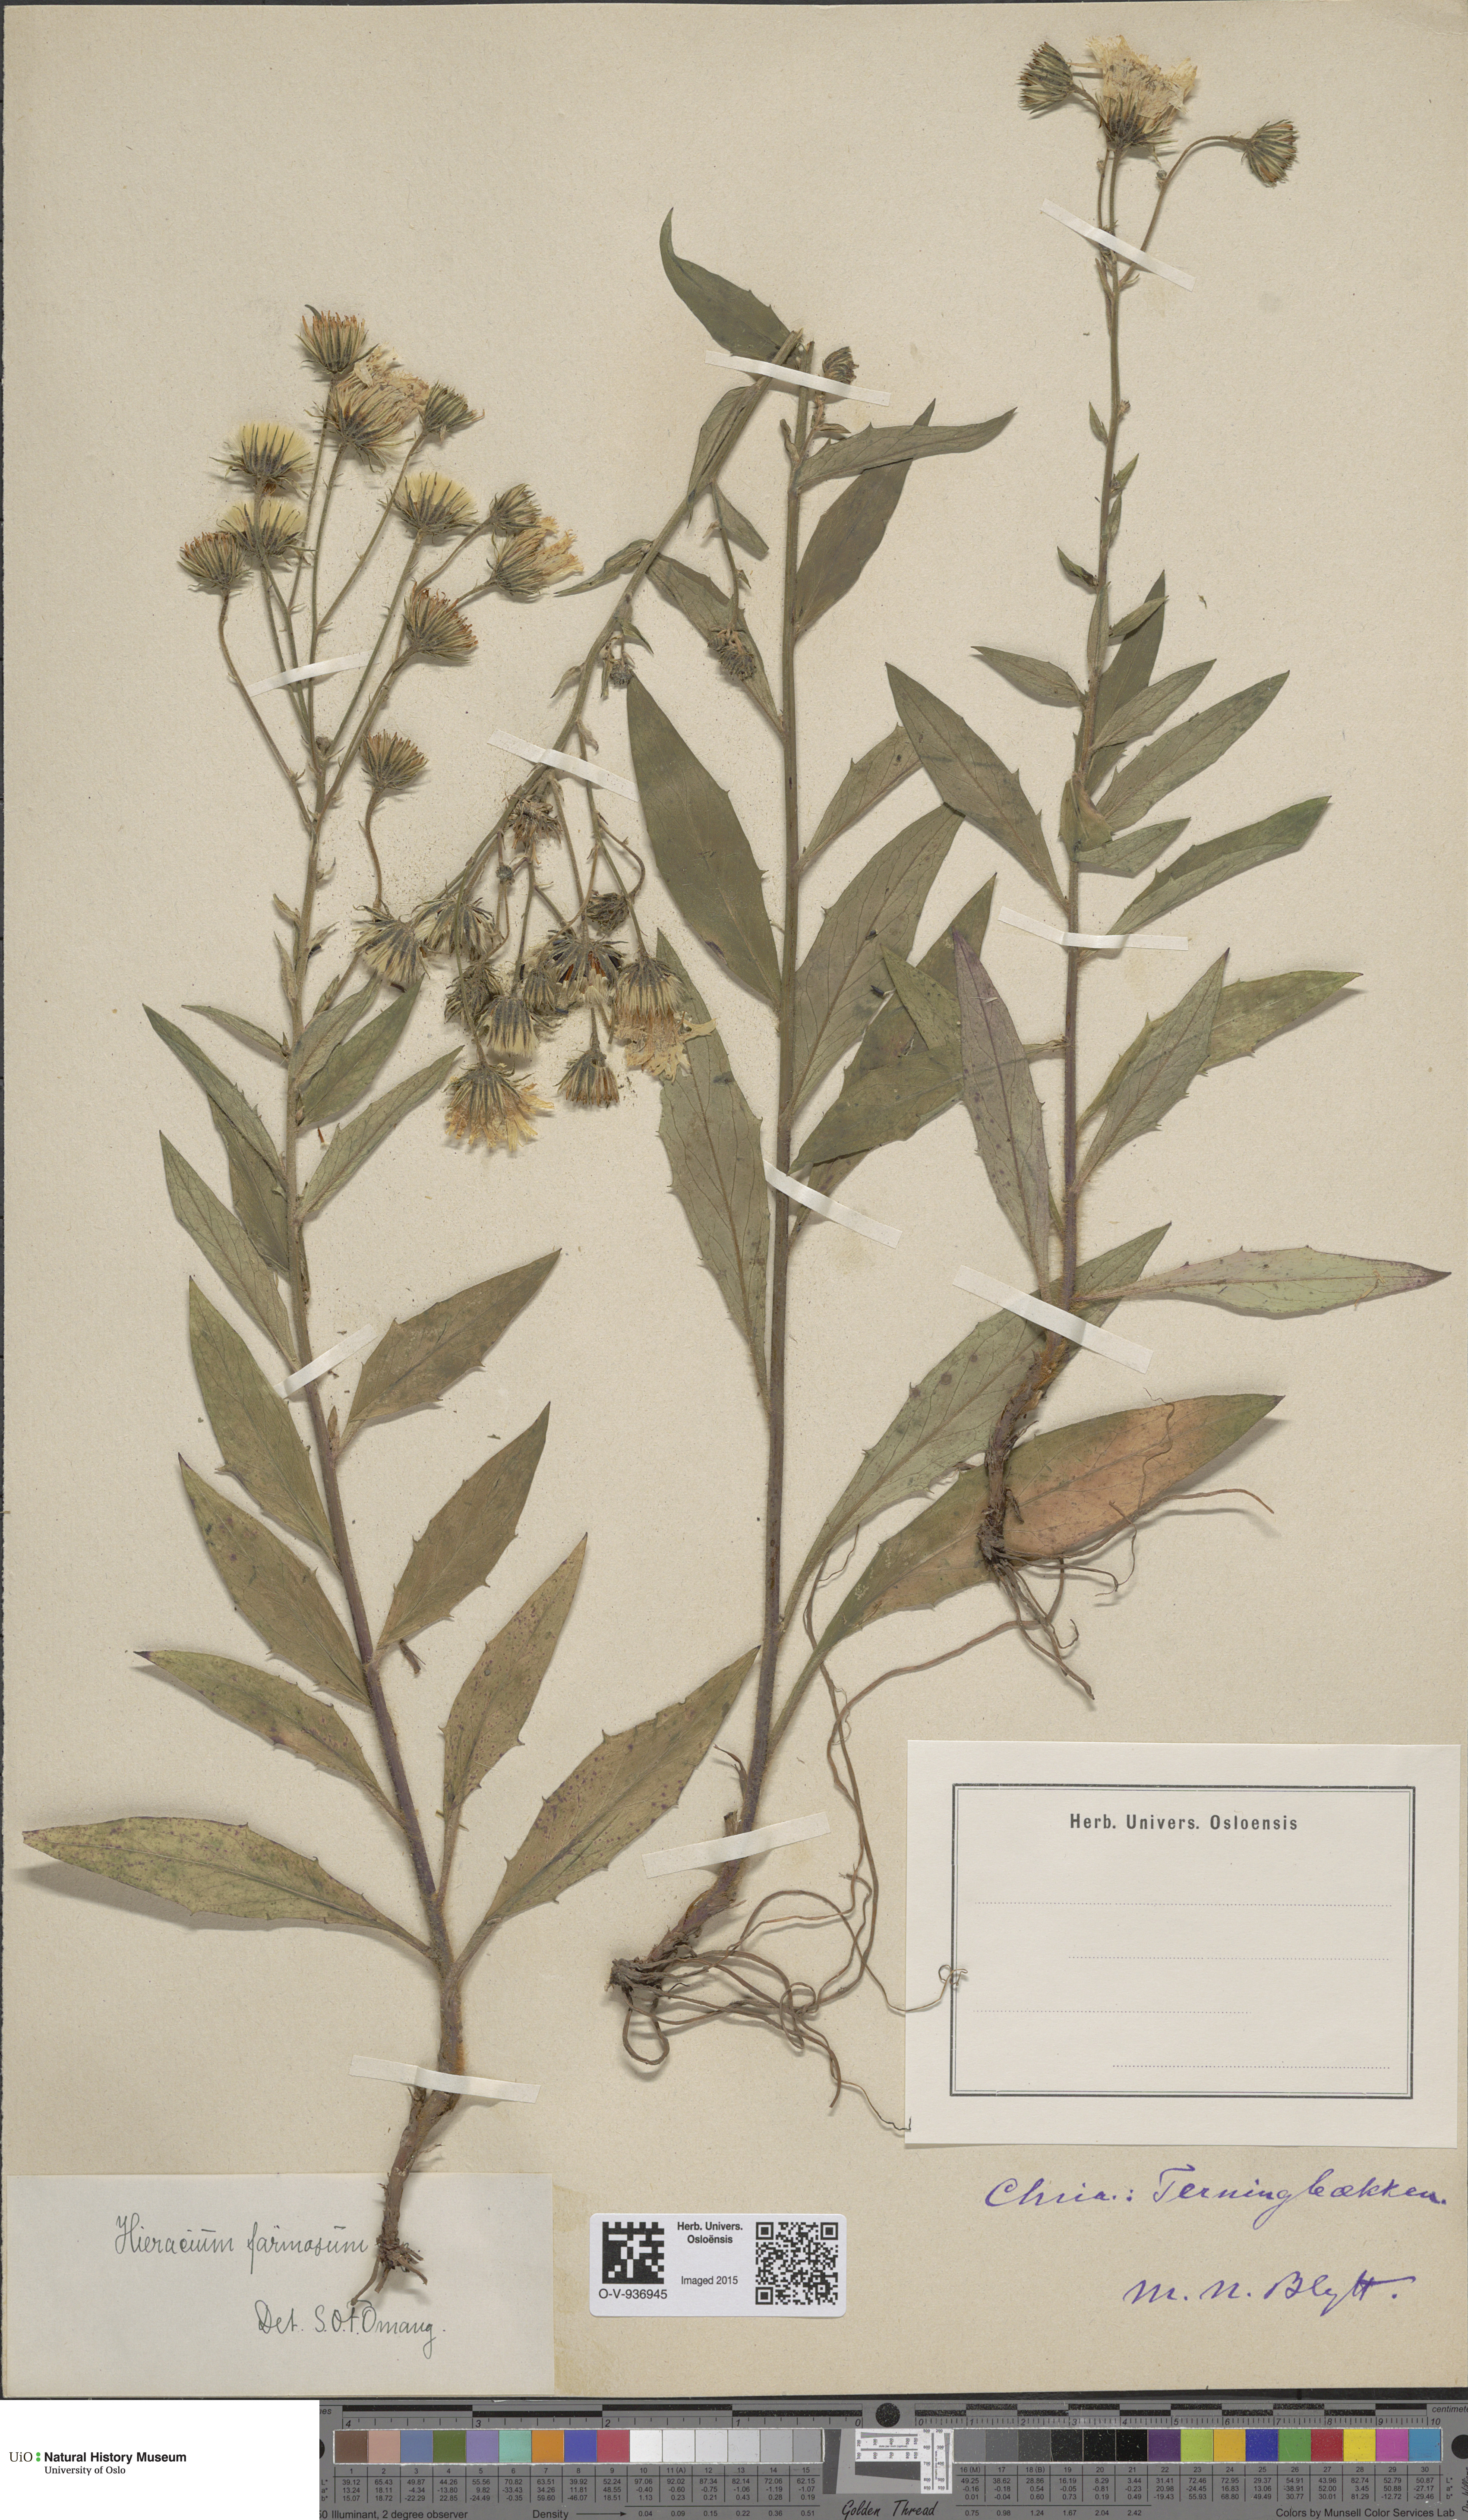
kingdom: Plantae
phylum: Tracheophyta
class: Magnoliopsida
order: Asterales
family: Asteraceae
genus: Hieracium
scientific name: Hieracium subfarinaceum
